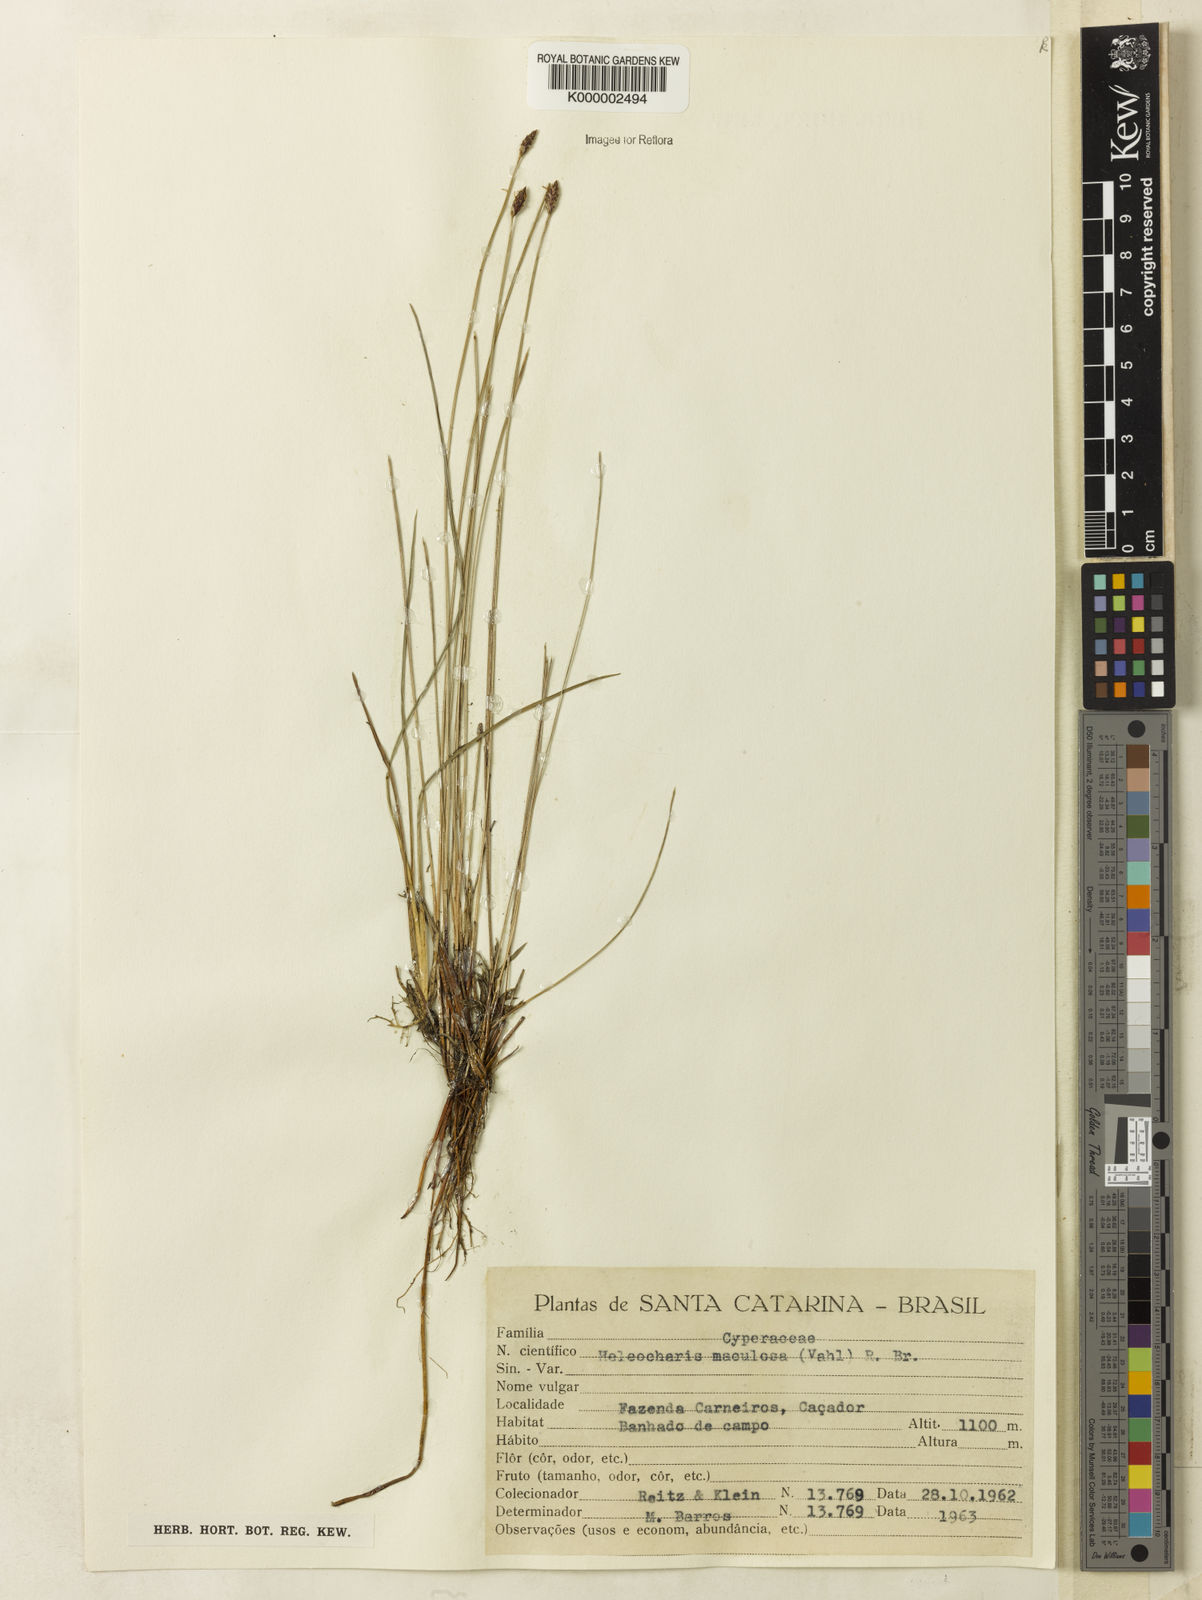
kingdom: Plantae
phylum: Tracheophyta
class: Liliopsida
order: Poales
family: Cyperaceae
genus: Eleocharis
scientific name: Eleocharis maculosa
